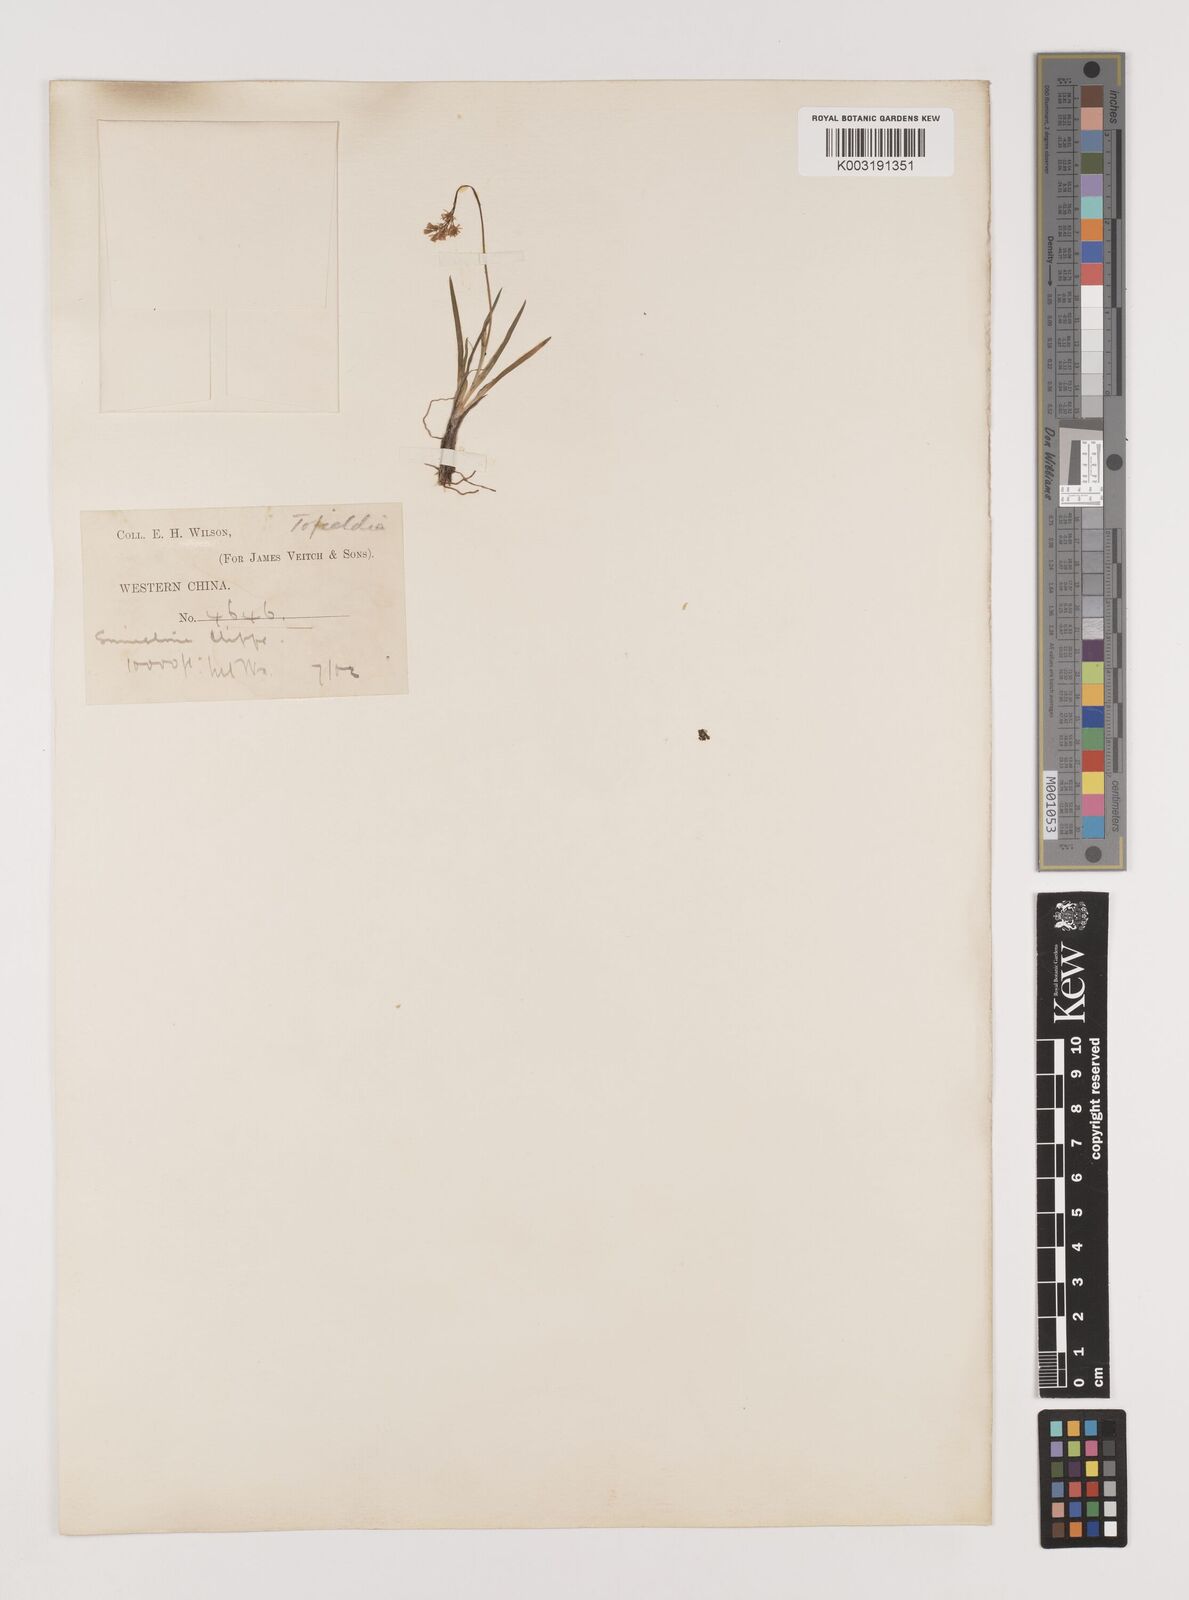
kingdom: Plantae
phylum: Tracheophyta
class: Liliopsida
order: Alismatales
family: Tofieldiaceae
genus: Tofieldia
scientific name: Tofieldia
